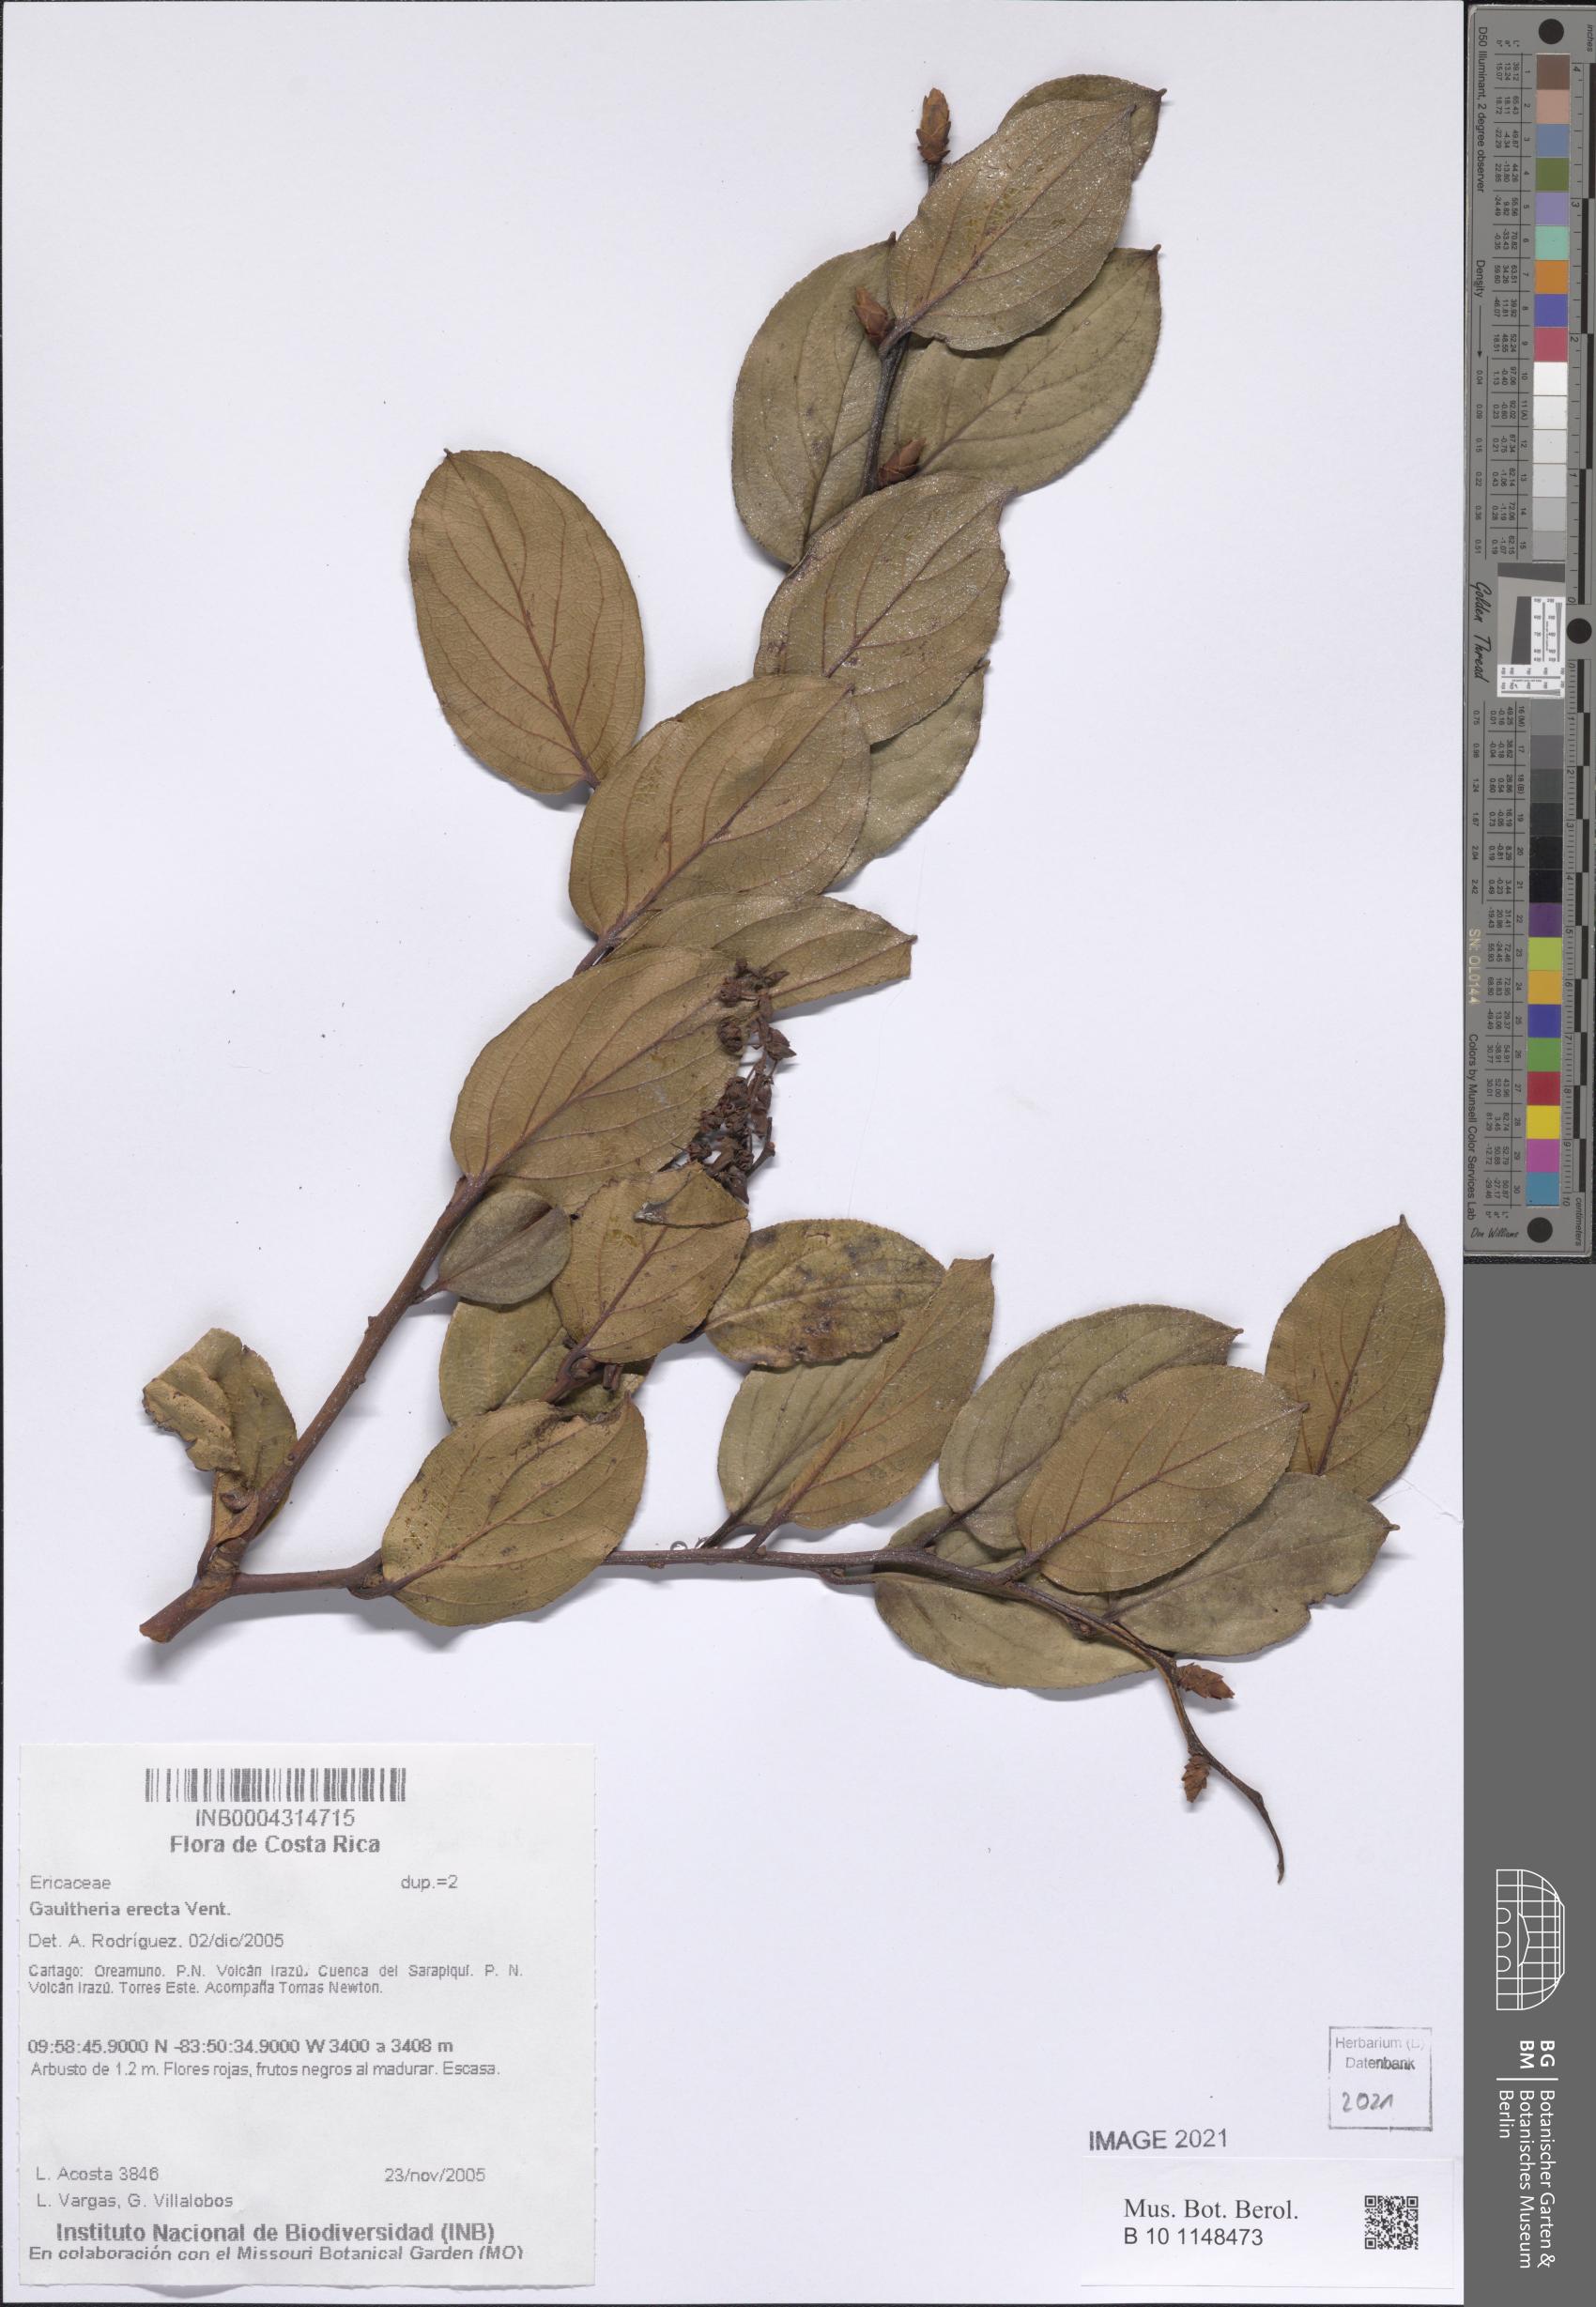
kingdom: Plantae
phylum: Tracheophyta
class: Magnoliopsida
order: Ericales
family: Ericaceae
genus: Gaultheria
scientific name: Gaultheria erecta
